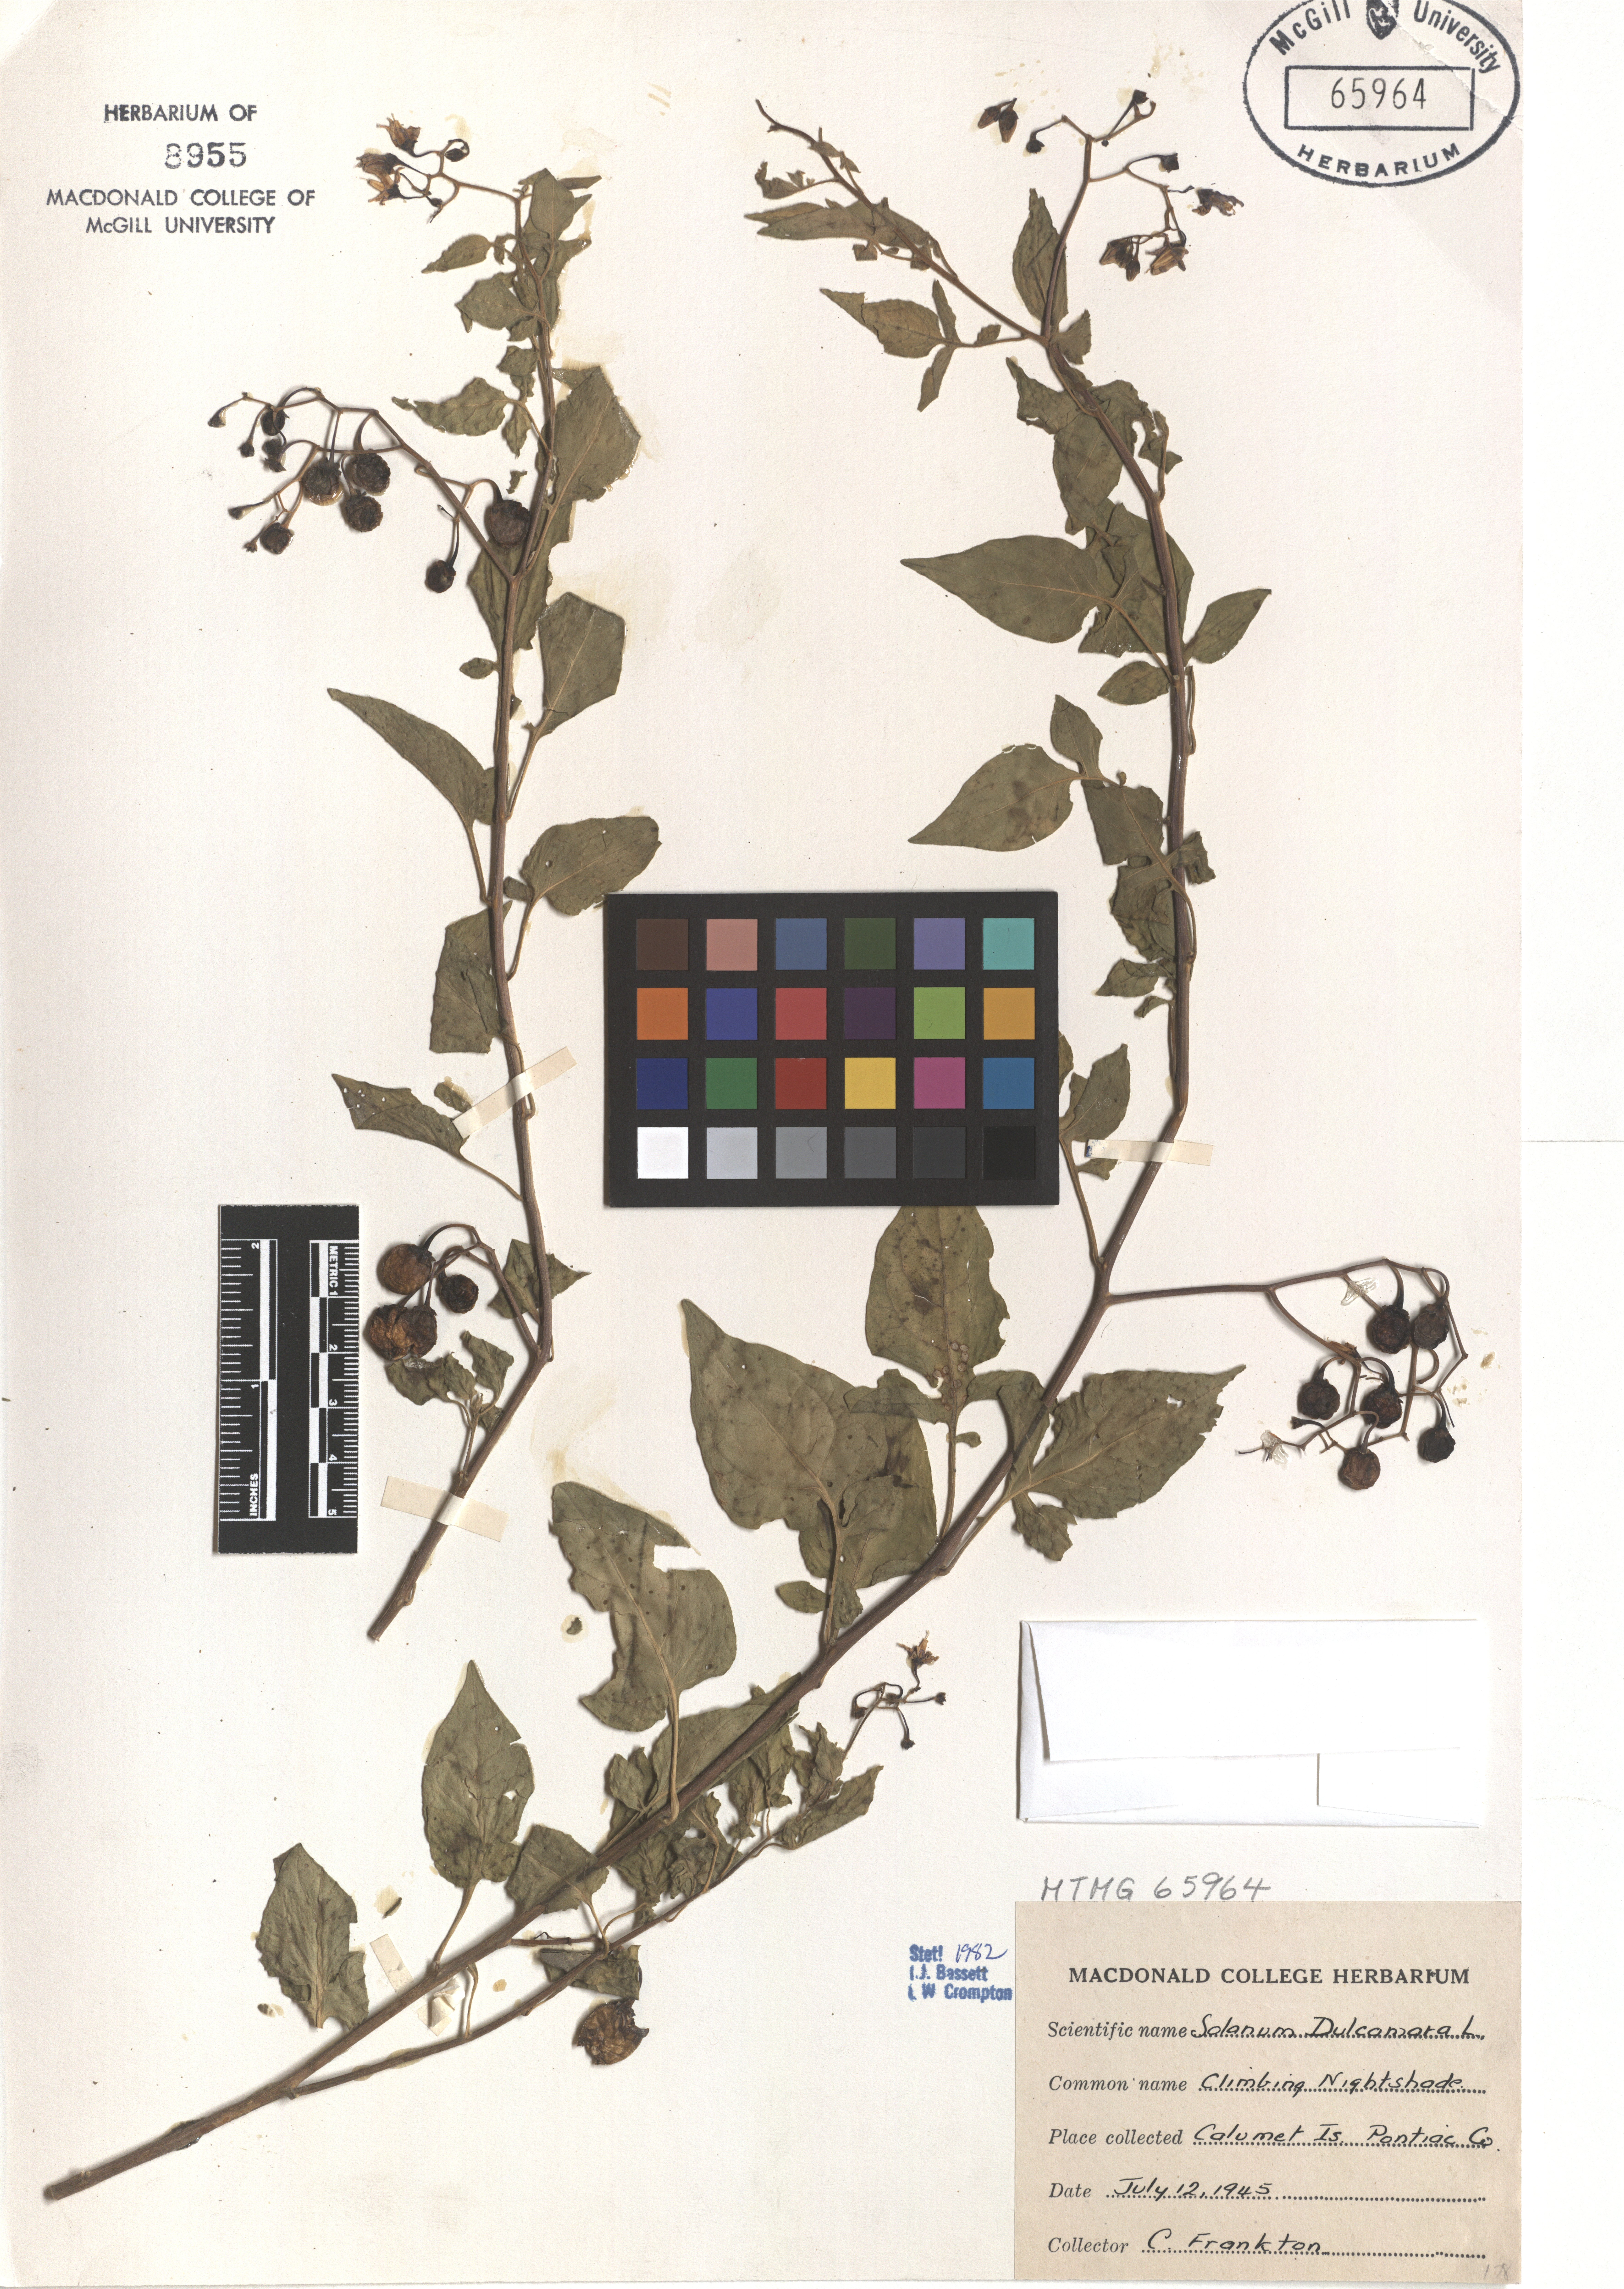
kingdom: Plantae
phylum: Tracheophyta
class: Magnoliopsida
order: Solanales
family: Solanaceae
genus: Solanum
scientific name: Solanum dulcamara
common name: Climbing nightshade
